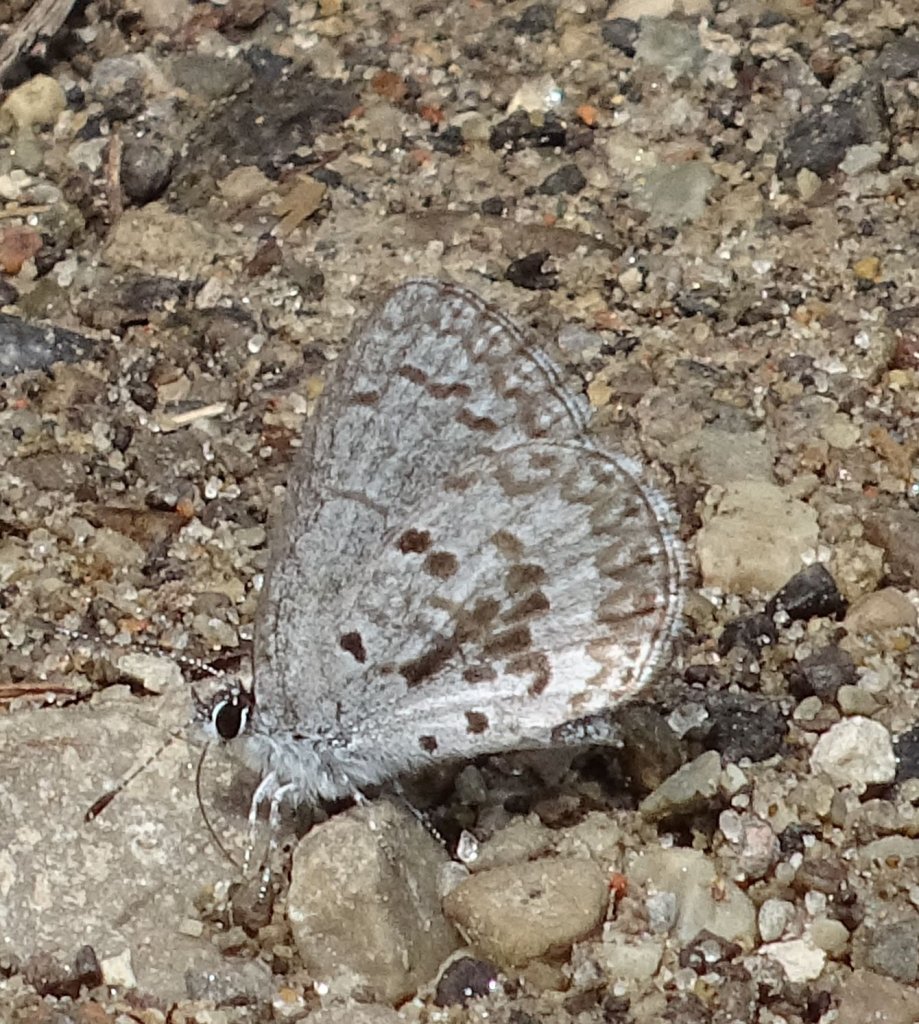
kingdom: Animalia
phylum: Arthropoda
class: Insecta
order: Lepidoptera
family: Lycaenidae
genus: Celastrina
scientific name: Celastrina lucia
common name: Northern Spring Azure
